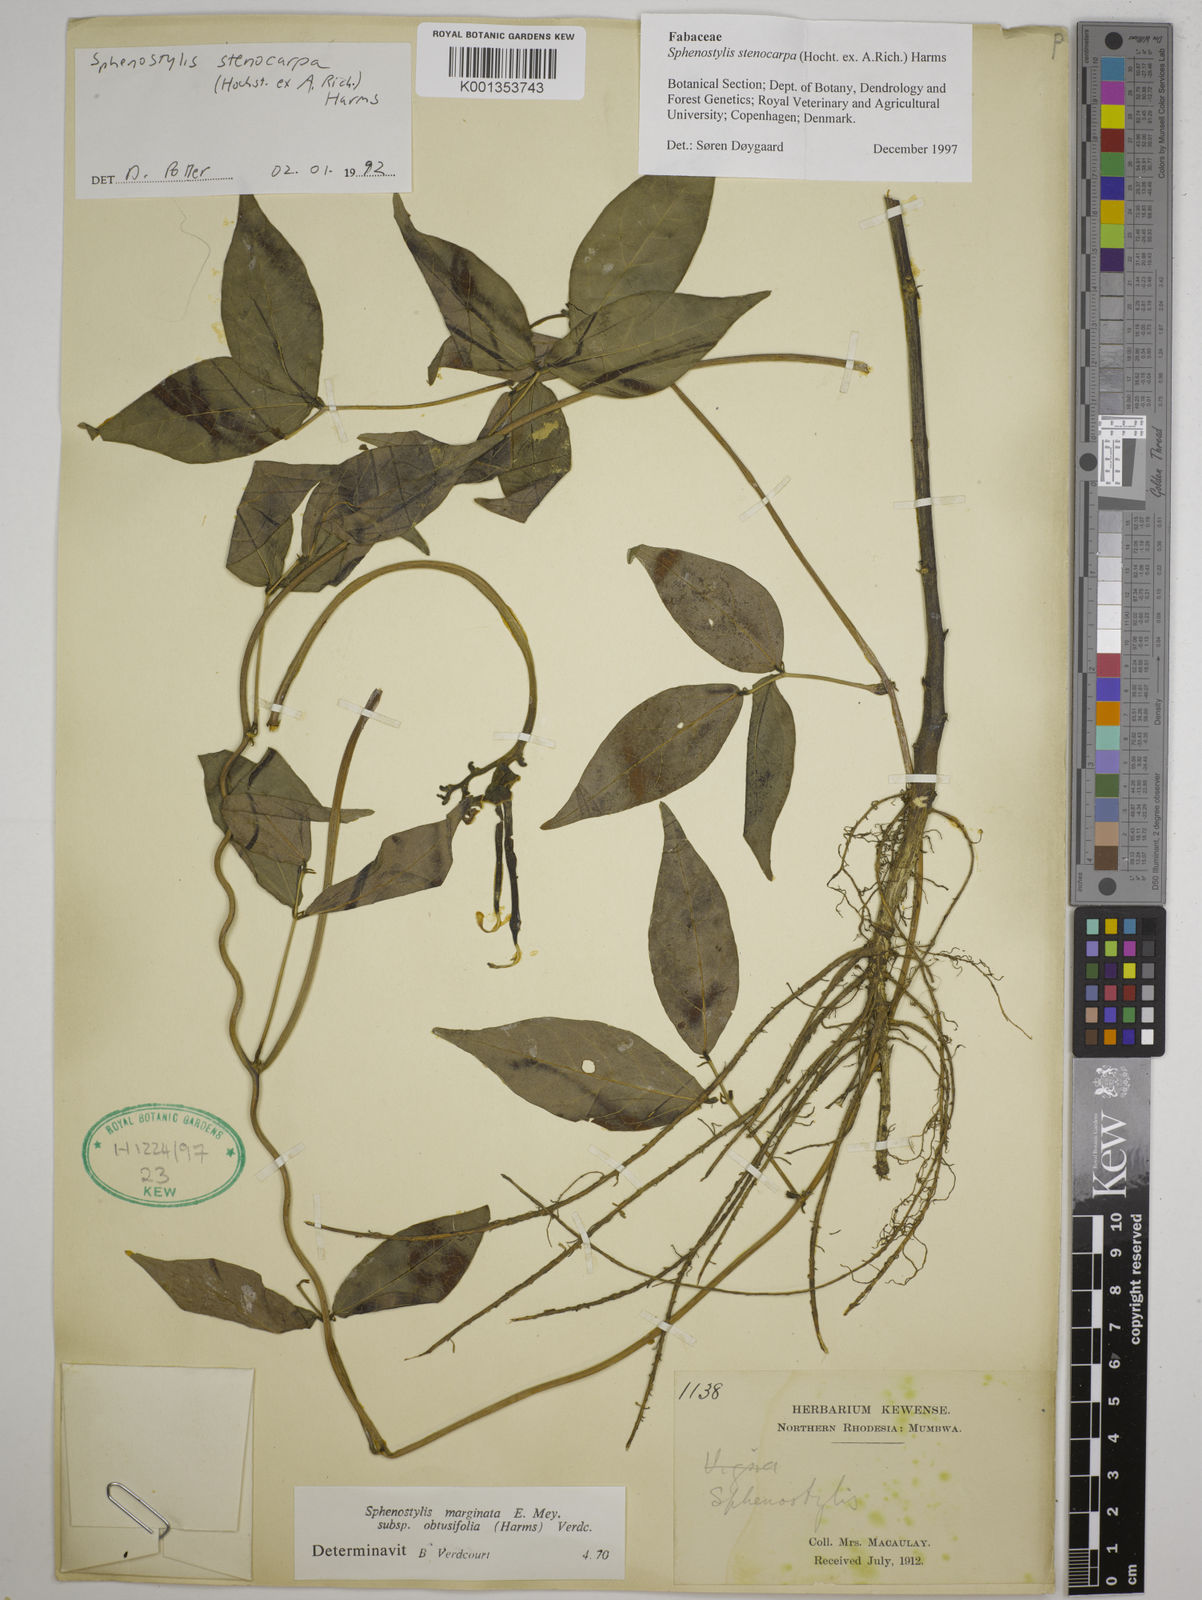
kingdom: Plantae
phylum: Tracheophyta
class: Magnoliopsida
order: Fabales
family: Fabaceae
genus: Sphenostylis
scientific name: Sphenostylis stenocarpa
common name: Yam-pea
